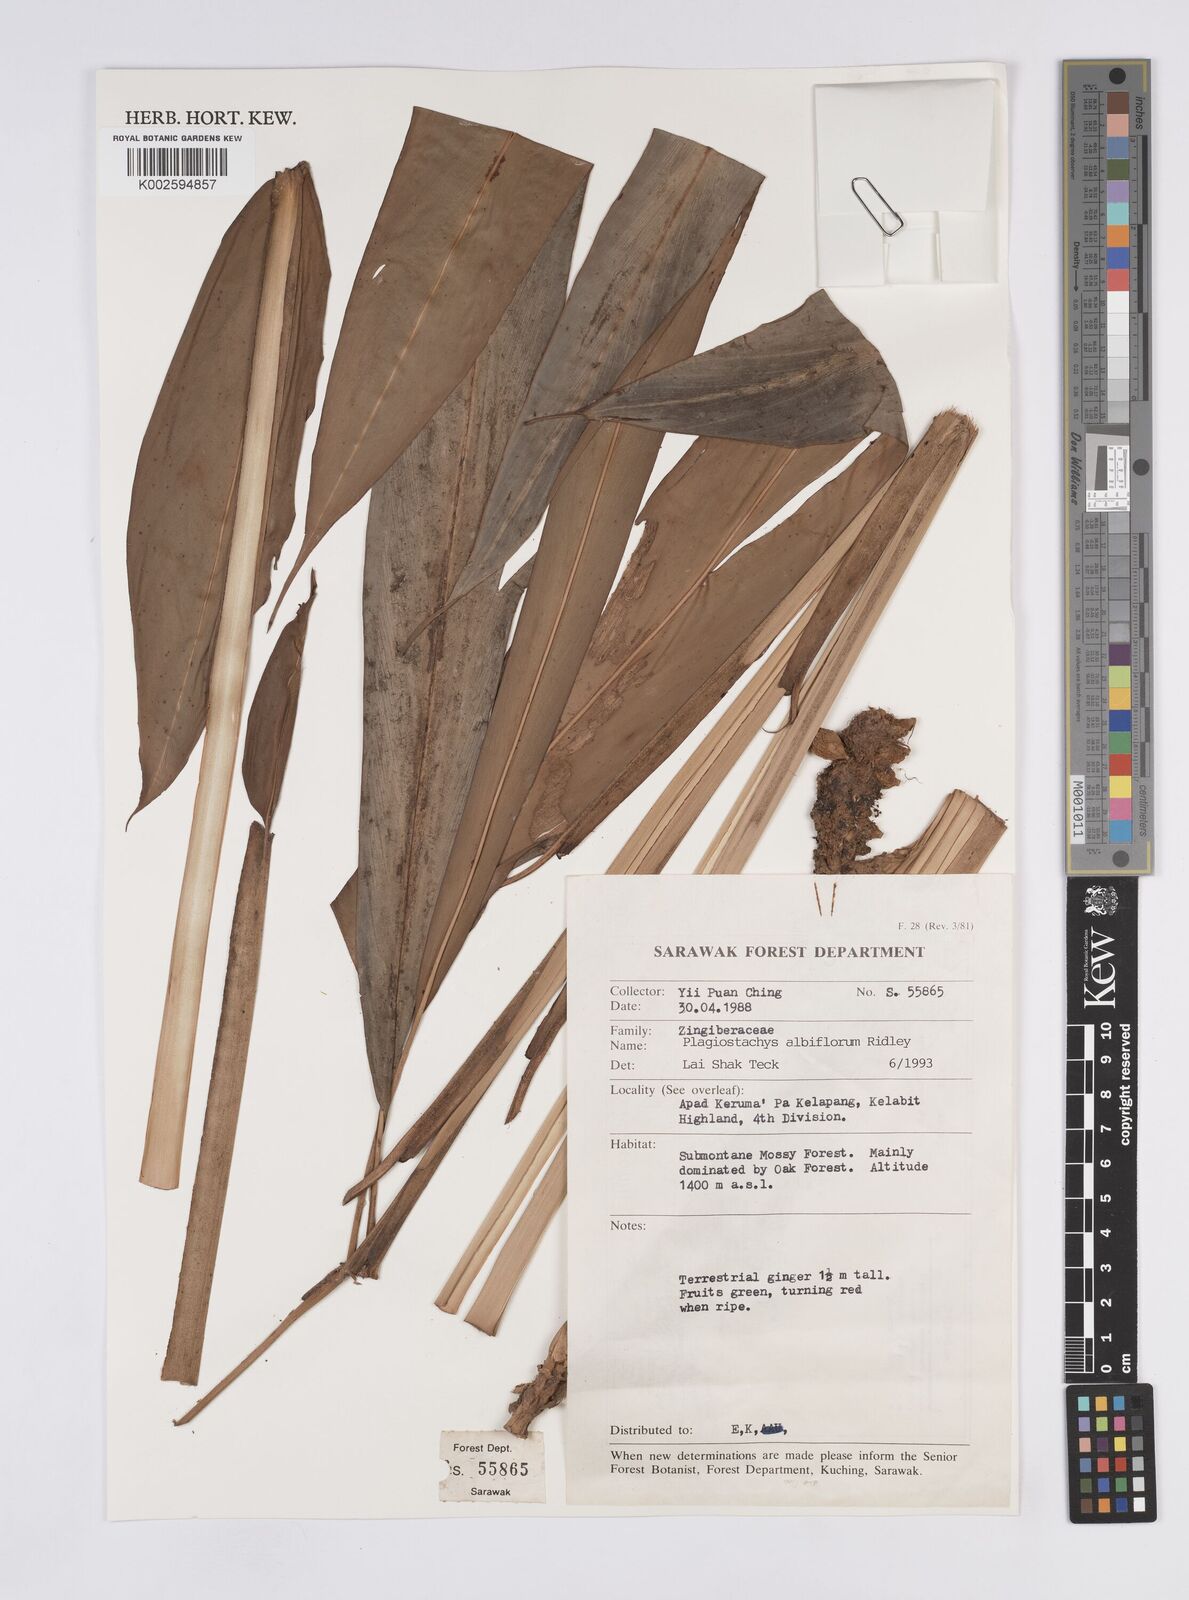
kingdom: Plantae
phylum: Tracheophyta
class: Liliopsida
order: Zingiberales
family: Zingiberaceae
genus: Plagiostachys
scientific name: Plagiostachys albiflora
